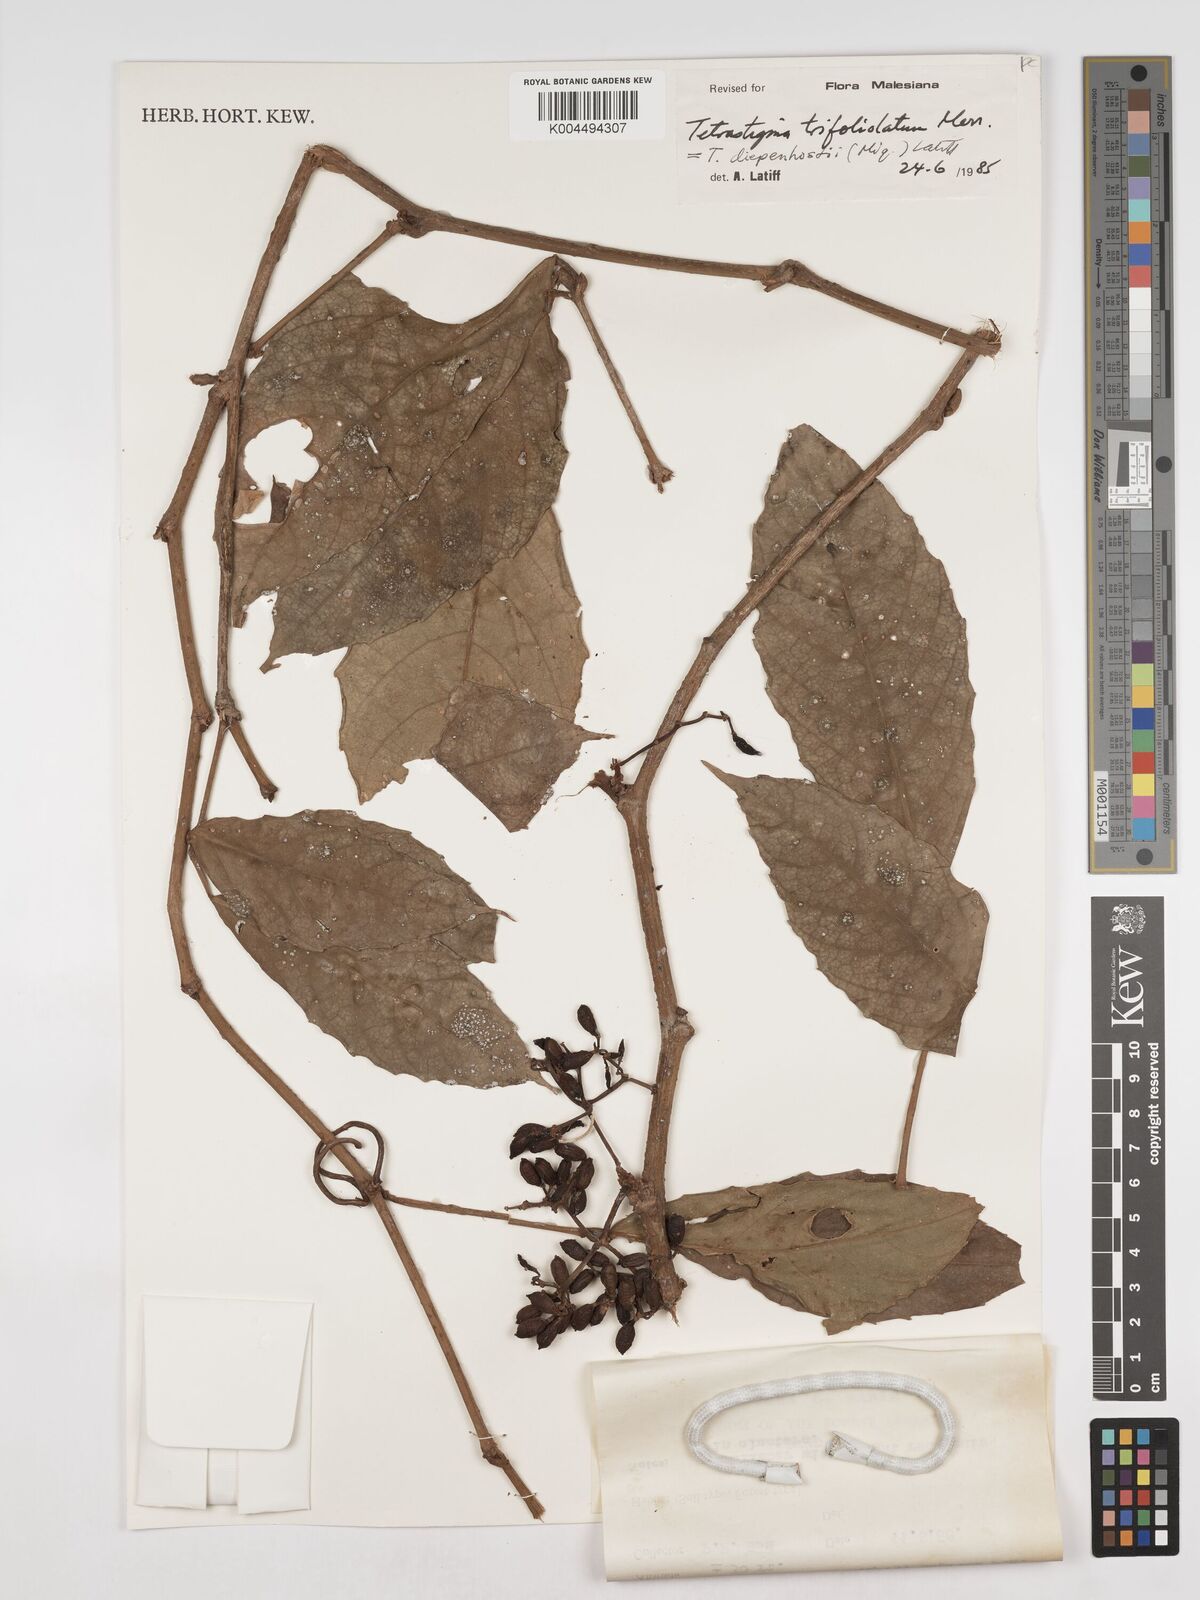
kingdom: Plantae
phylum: Tracheophyta
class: Magnoliopsida
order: Vitales
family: Vitaceae
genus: Tetrastigma
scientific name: Tetrastigma trifoliolatum
